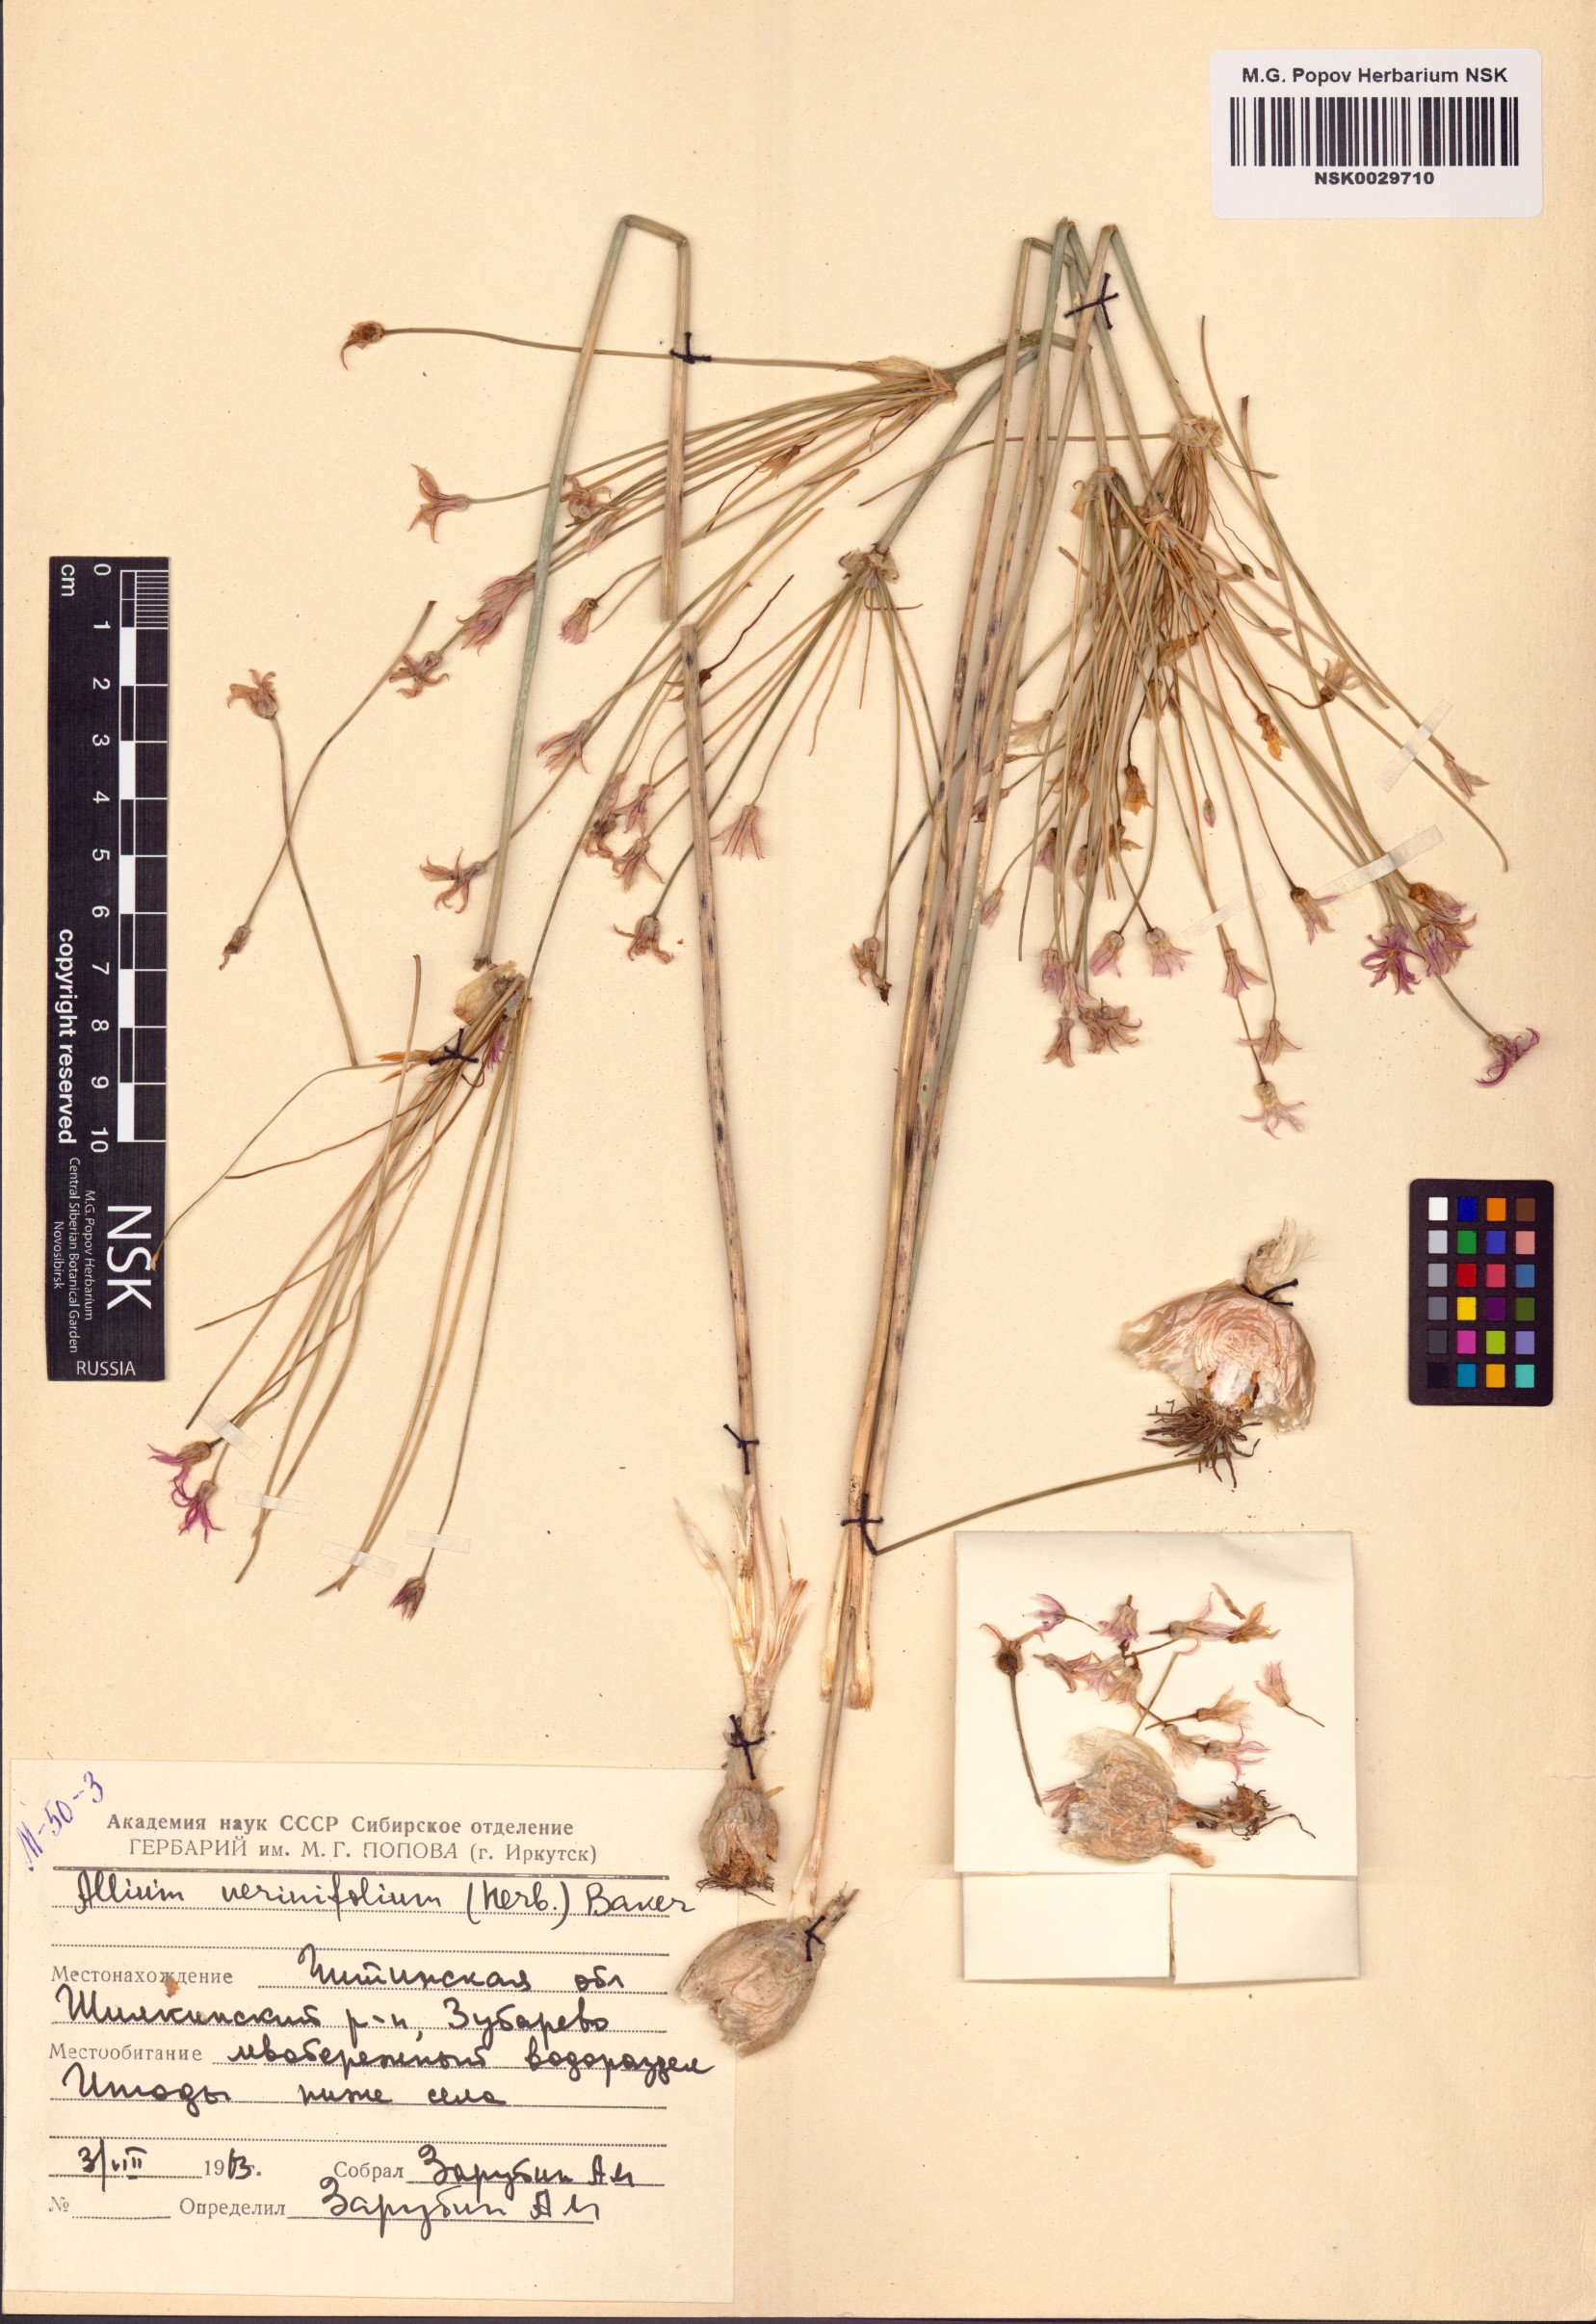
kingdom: Plantae
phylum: Tracheophyta
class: Liliopsida
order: Asparagales
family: Amaryllidaceae
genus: Allium
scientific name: Allium thunbergii
